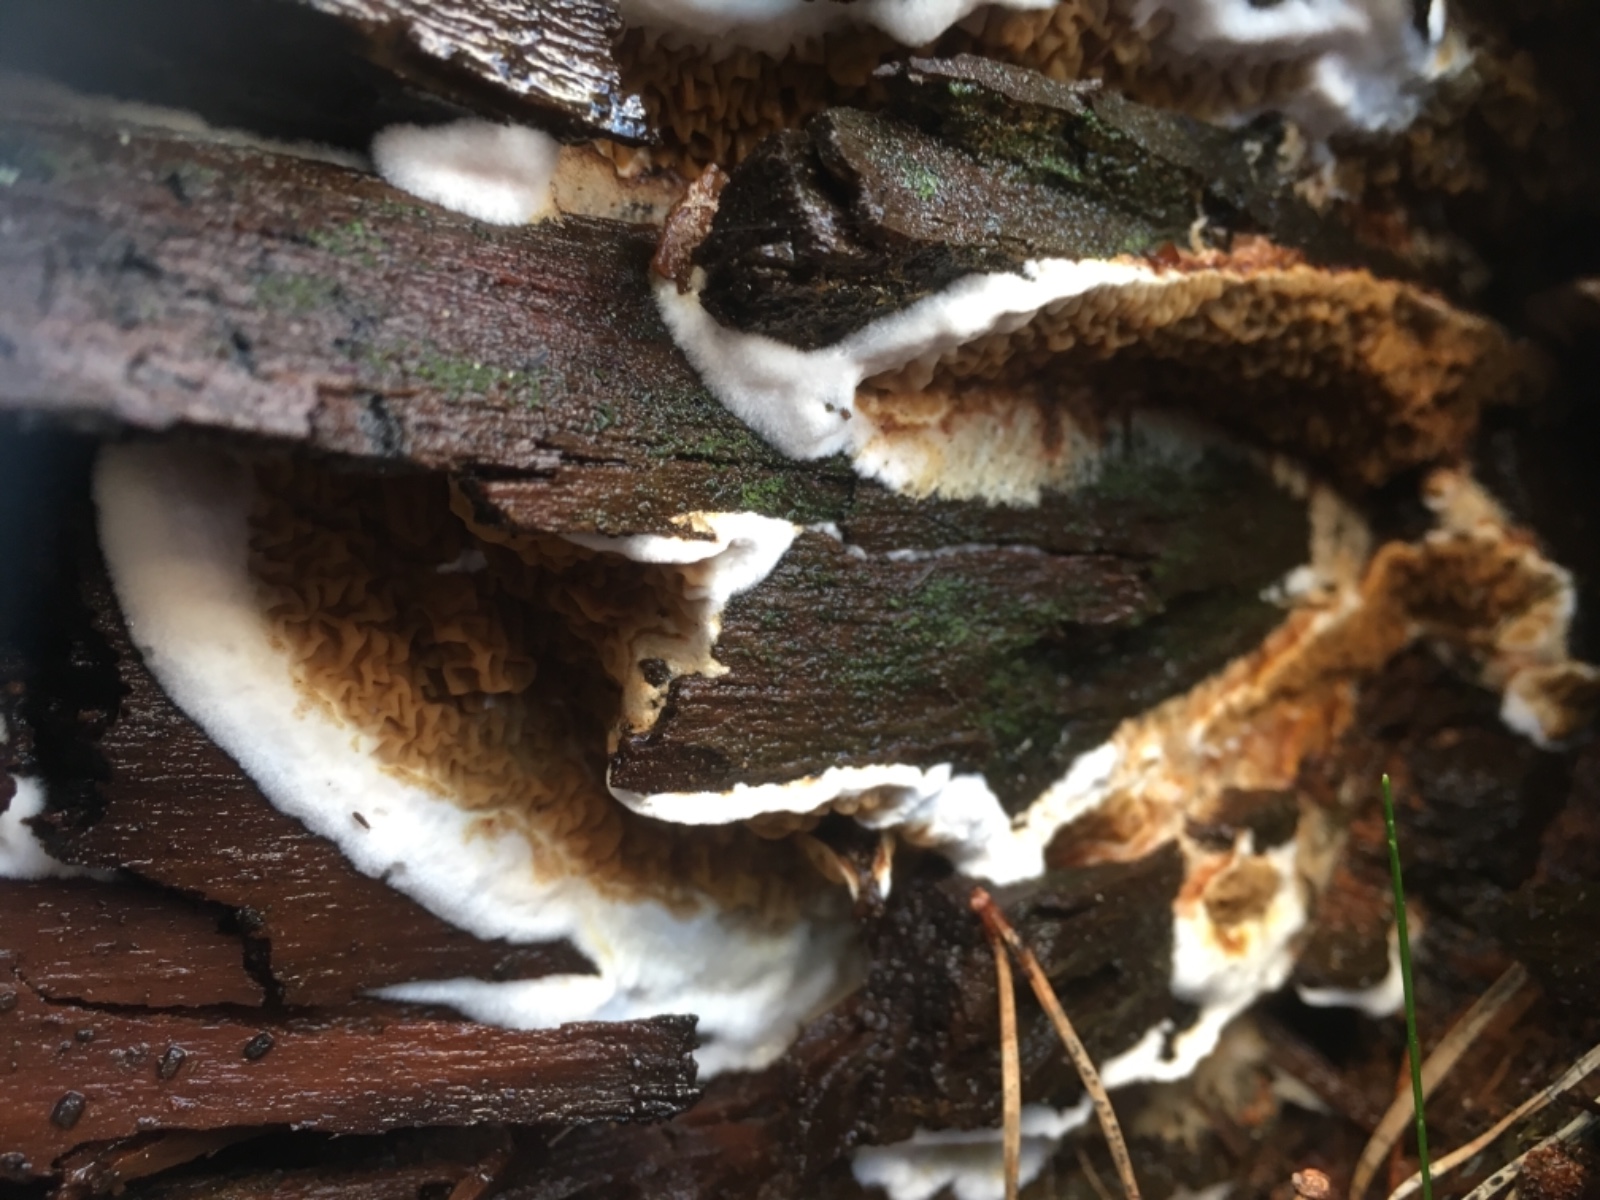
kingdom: Fungi
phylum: Basidiomycota
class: Agaricomycetes
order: Boletales
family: Serpulaceae
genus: Serpula
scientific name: Serpula himantioides
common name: tyndkødet hussvamp
